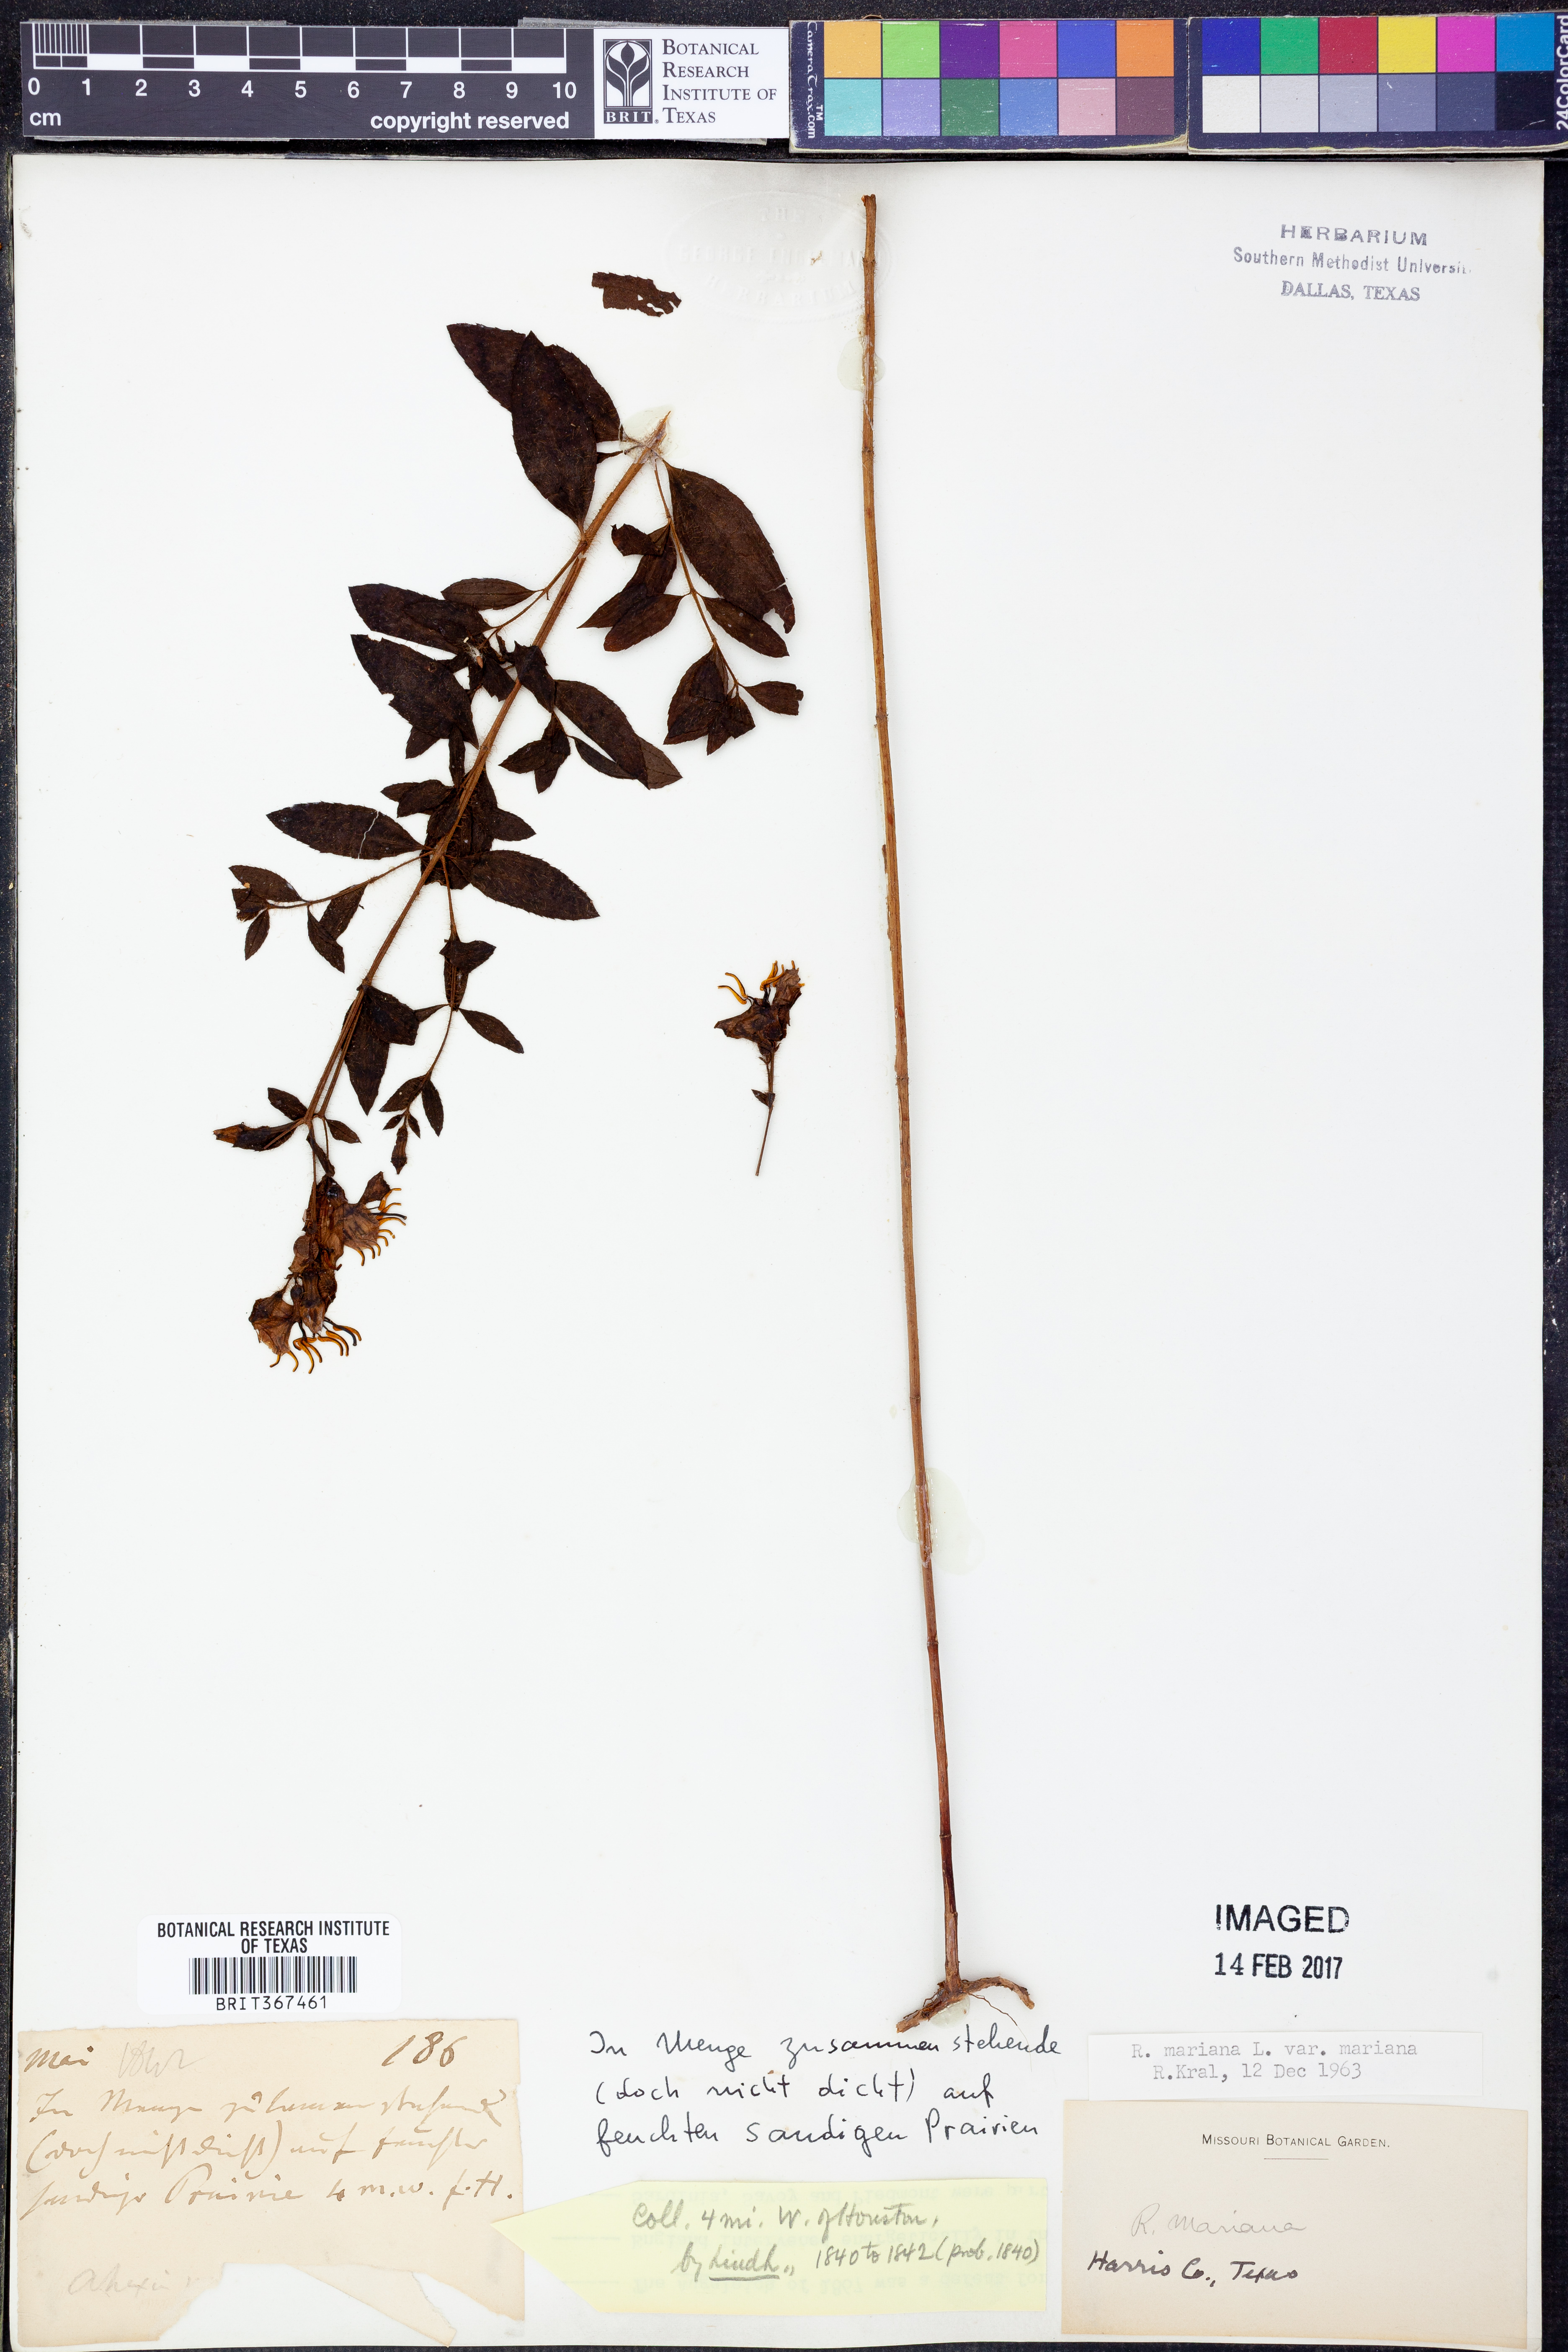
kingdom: Plantae
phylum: Tracheophyta
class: Magnoliopsida
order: Myrtales
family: Melastomataceae
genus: Rhexia
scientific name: Rhexia mariana
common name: Dull meadow-pitcher
